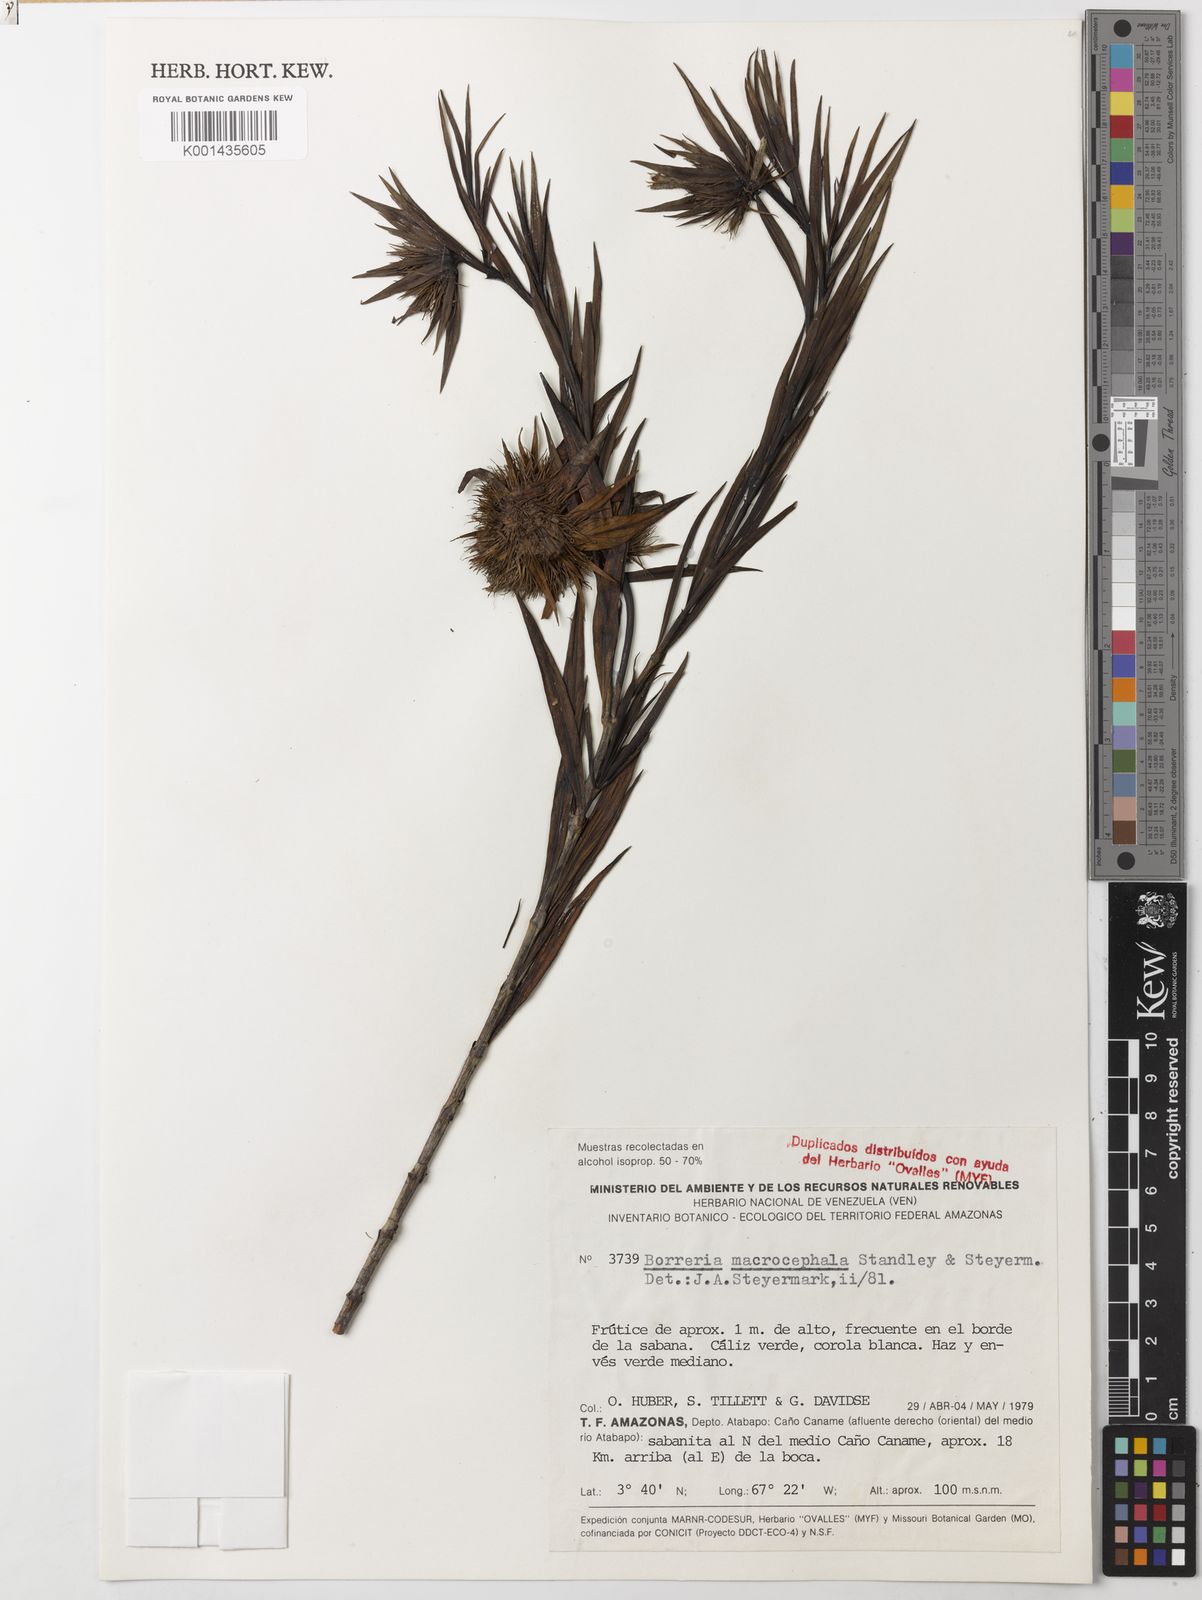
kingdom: Plantae
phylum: Tracheophyta
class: Magnoliopsida
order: Gentianales
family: Rubiaceae
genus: Spermacoce
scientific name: Spermacoce macrocephala
